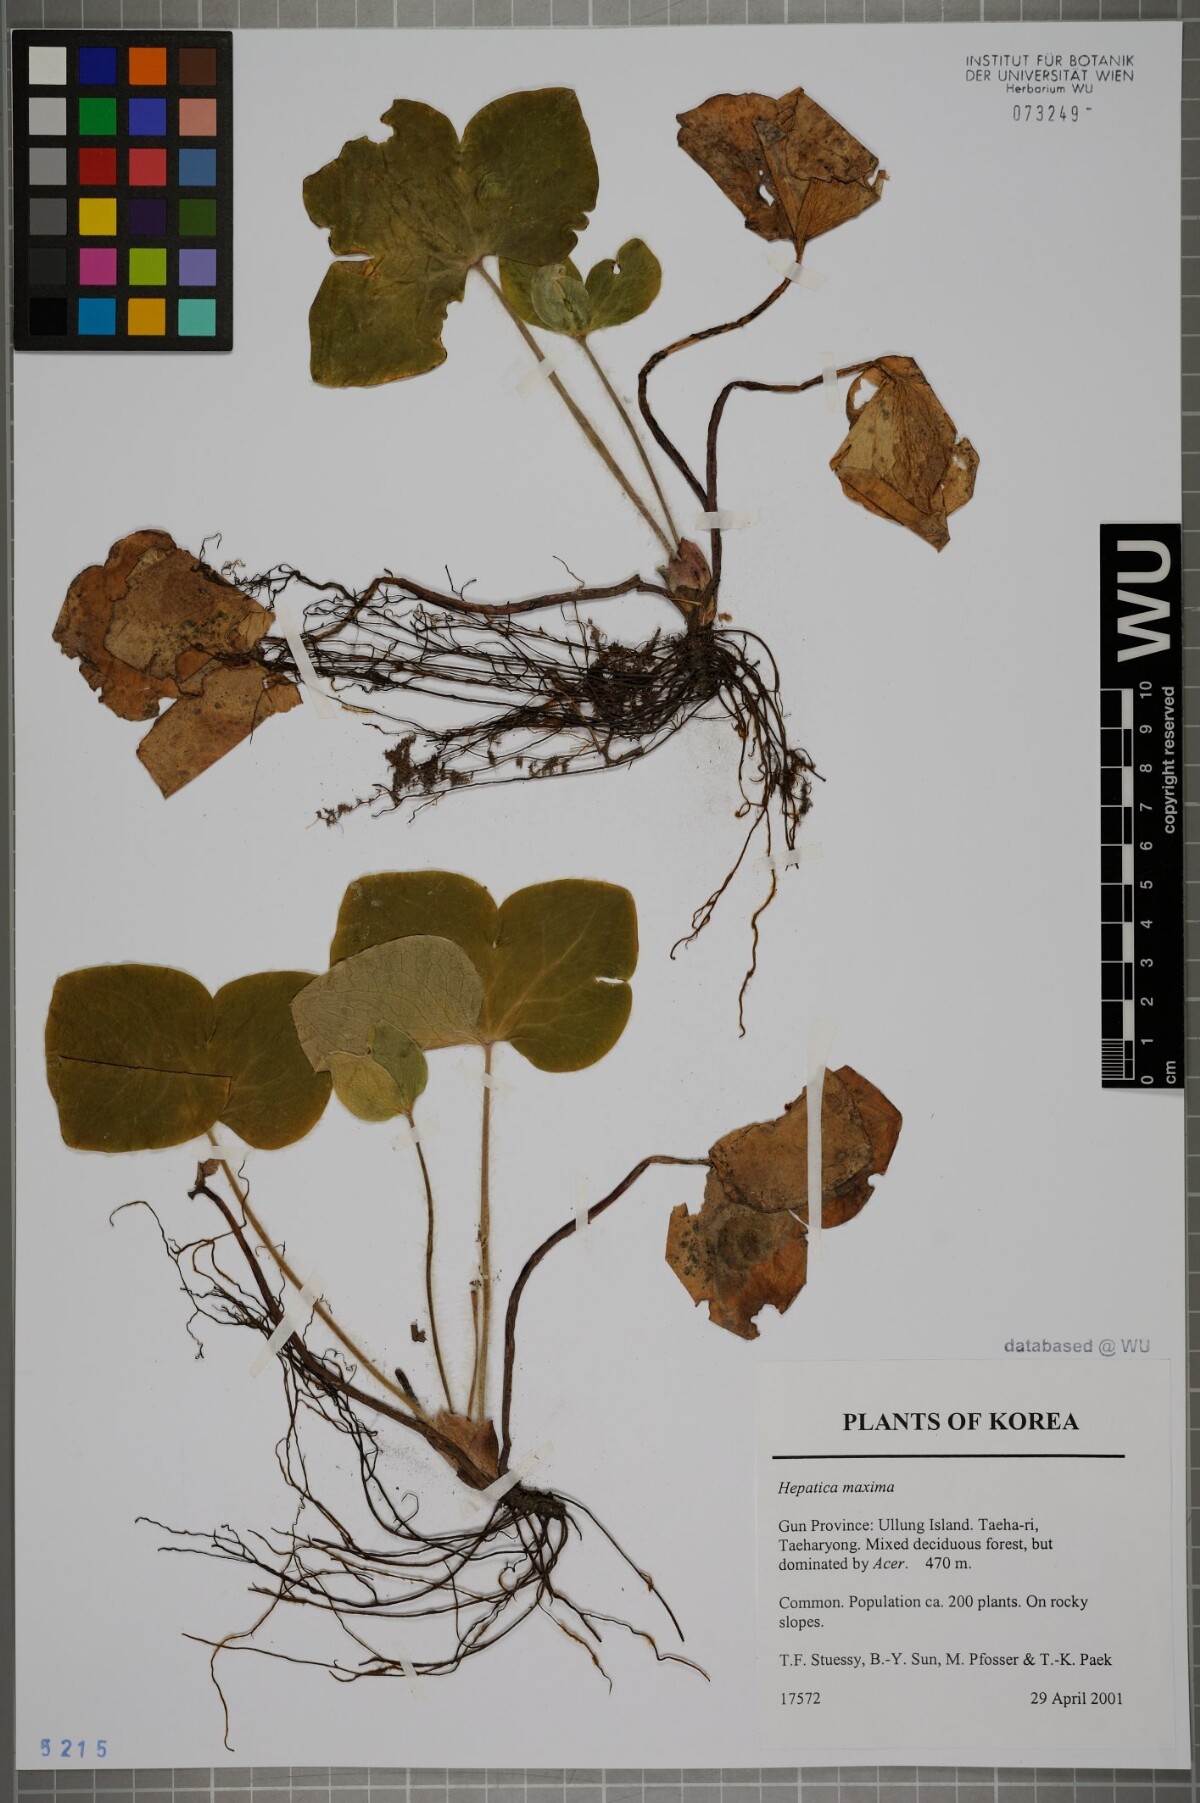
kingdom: Plantae
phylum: Tracheophyta
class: Magnoliopsida
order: Ranunculales
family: Ranunculaceae
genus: Hepatica
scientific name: Hepatica maxima
